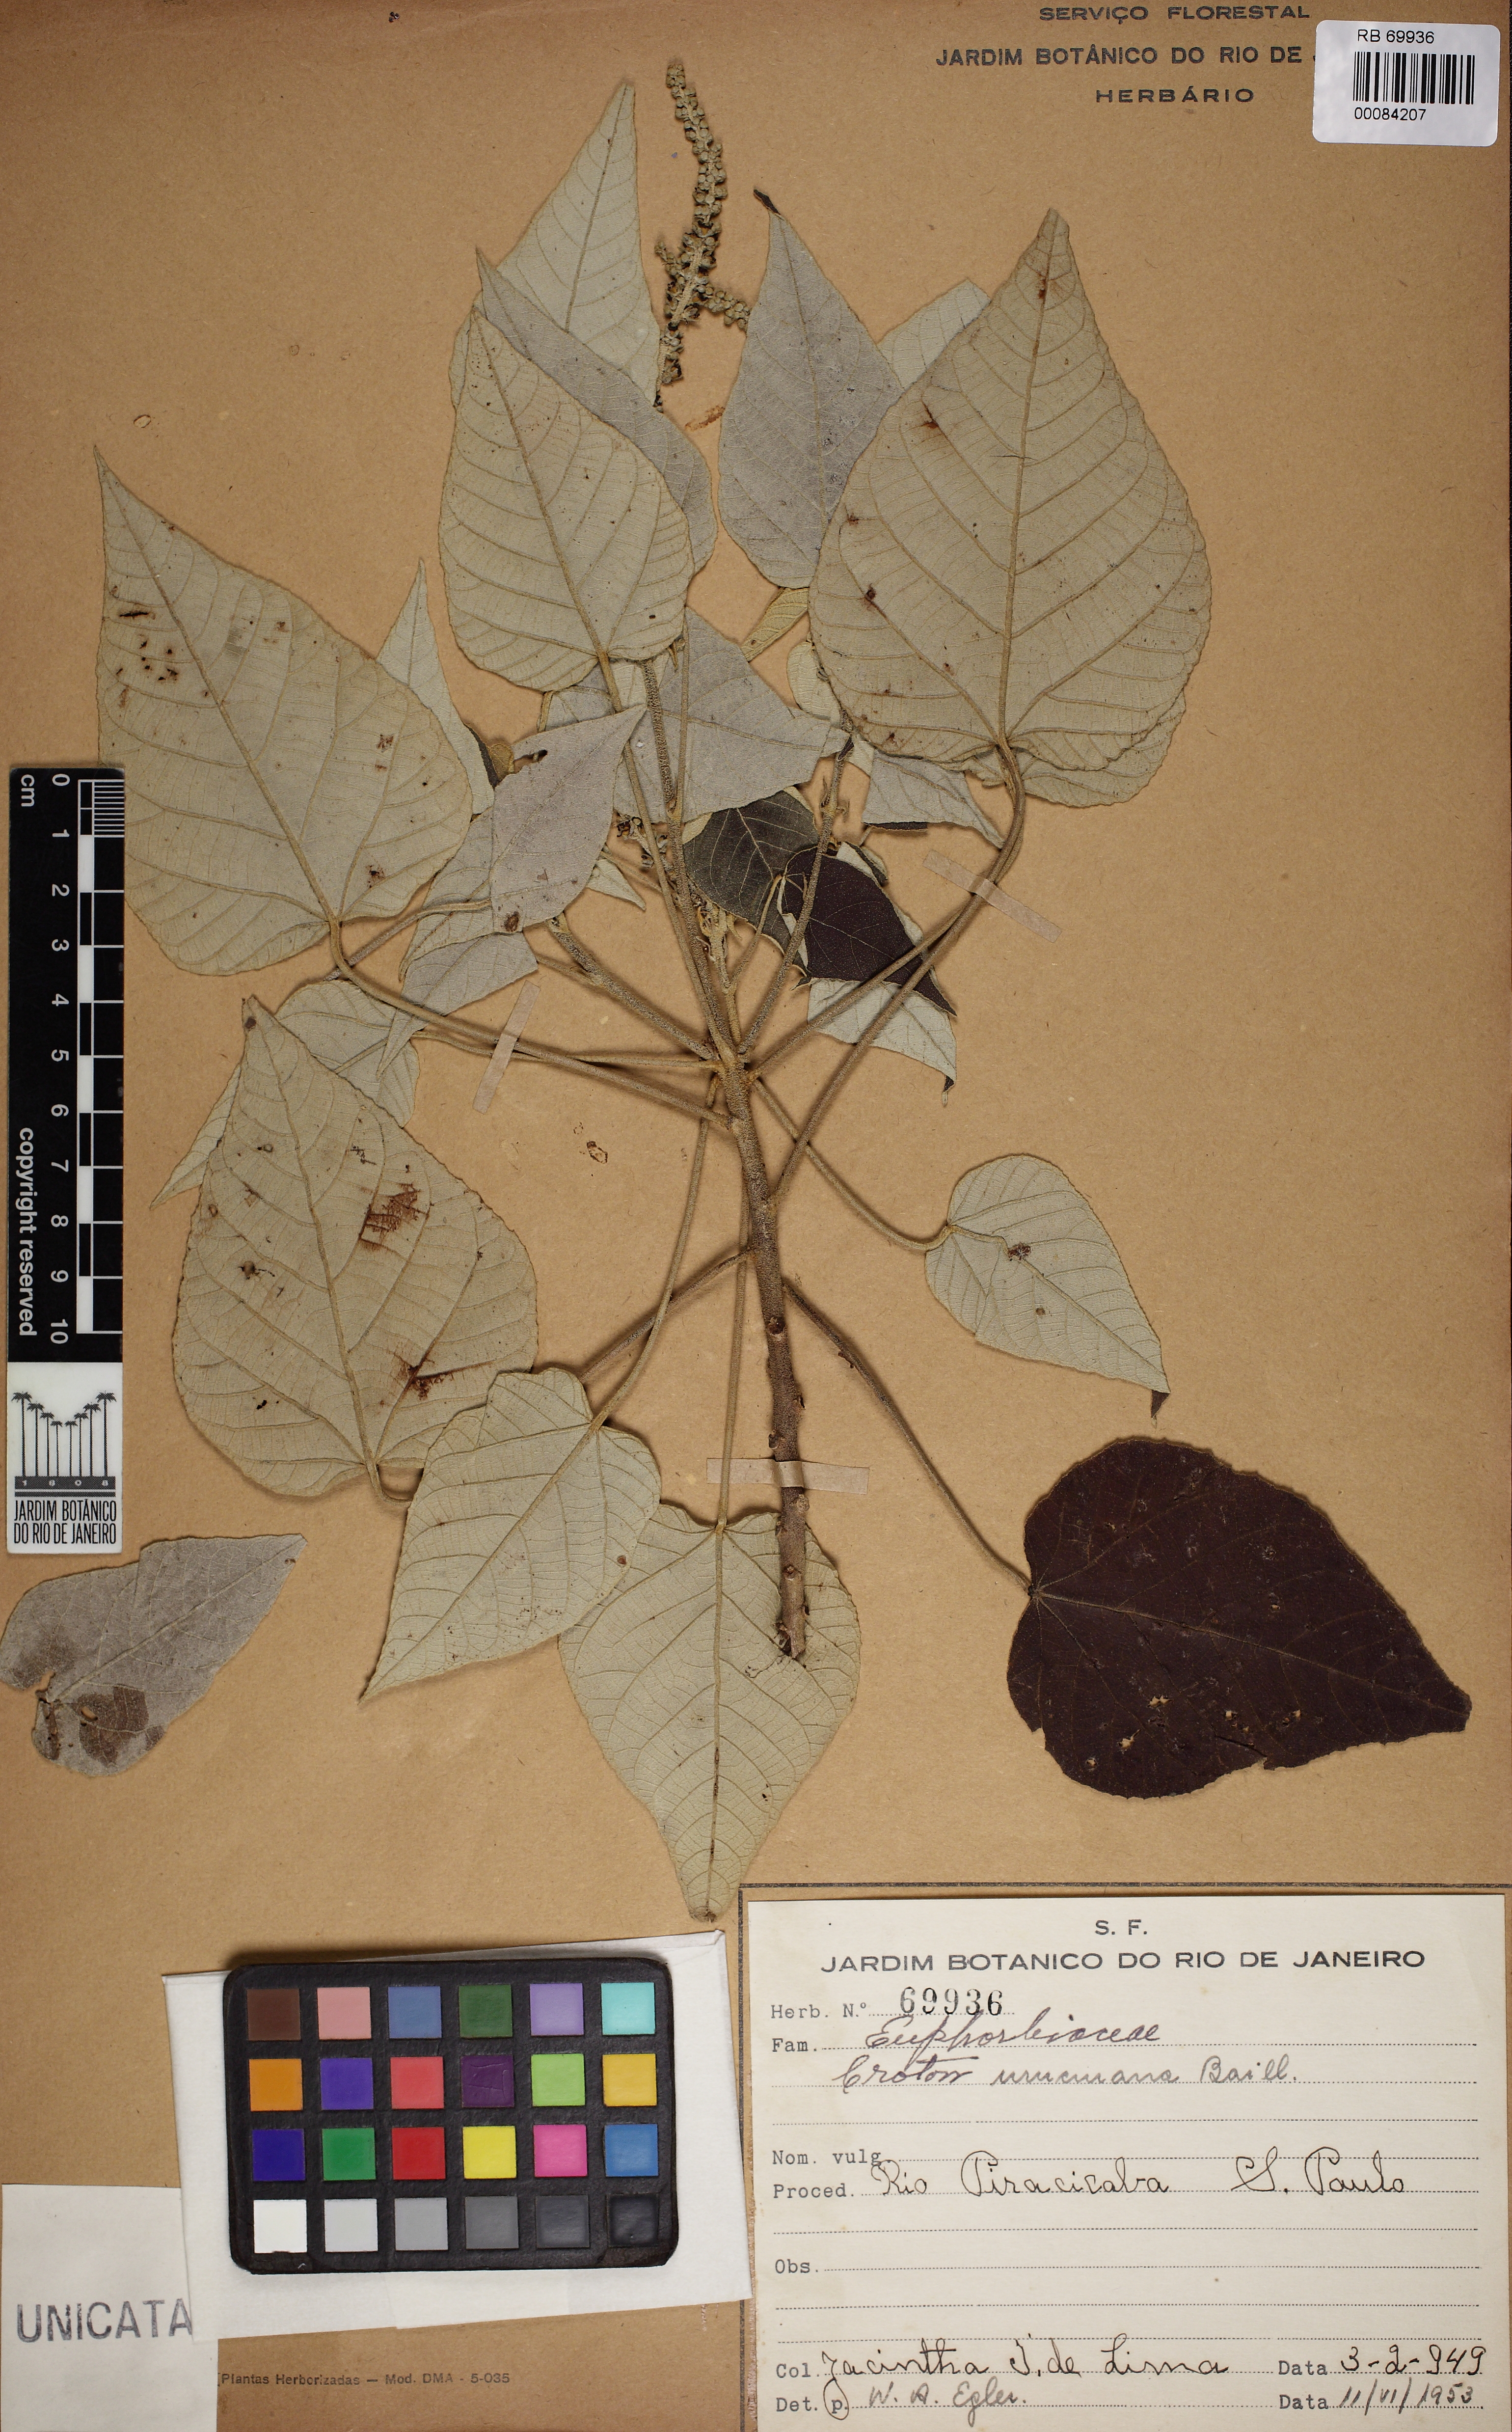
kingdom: Plantae
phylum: Tracheophyta
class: Magnoliopsida
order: Malpighiales
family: Euphorbiaceae
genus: Croton
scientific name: Croton urucurana
